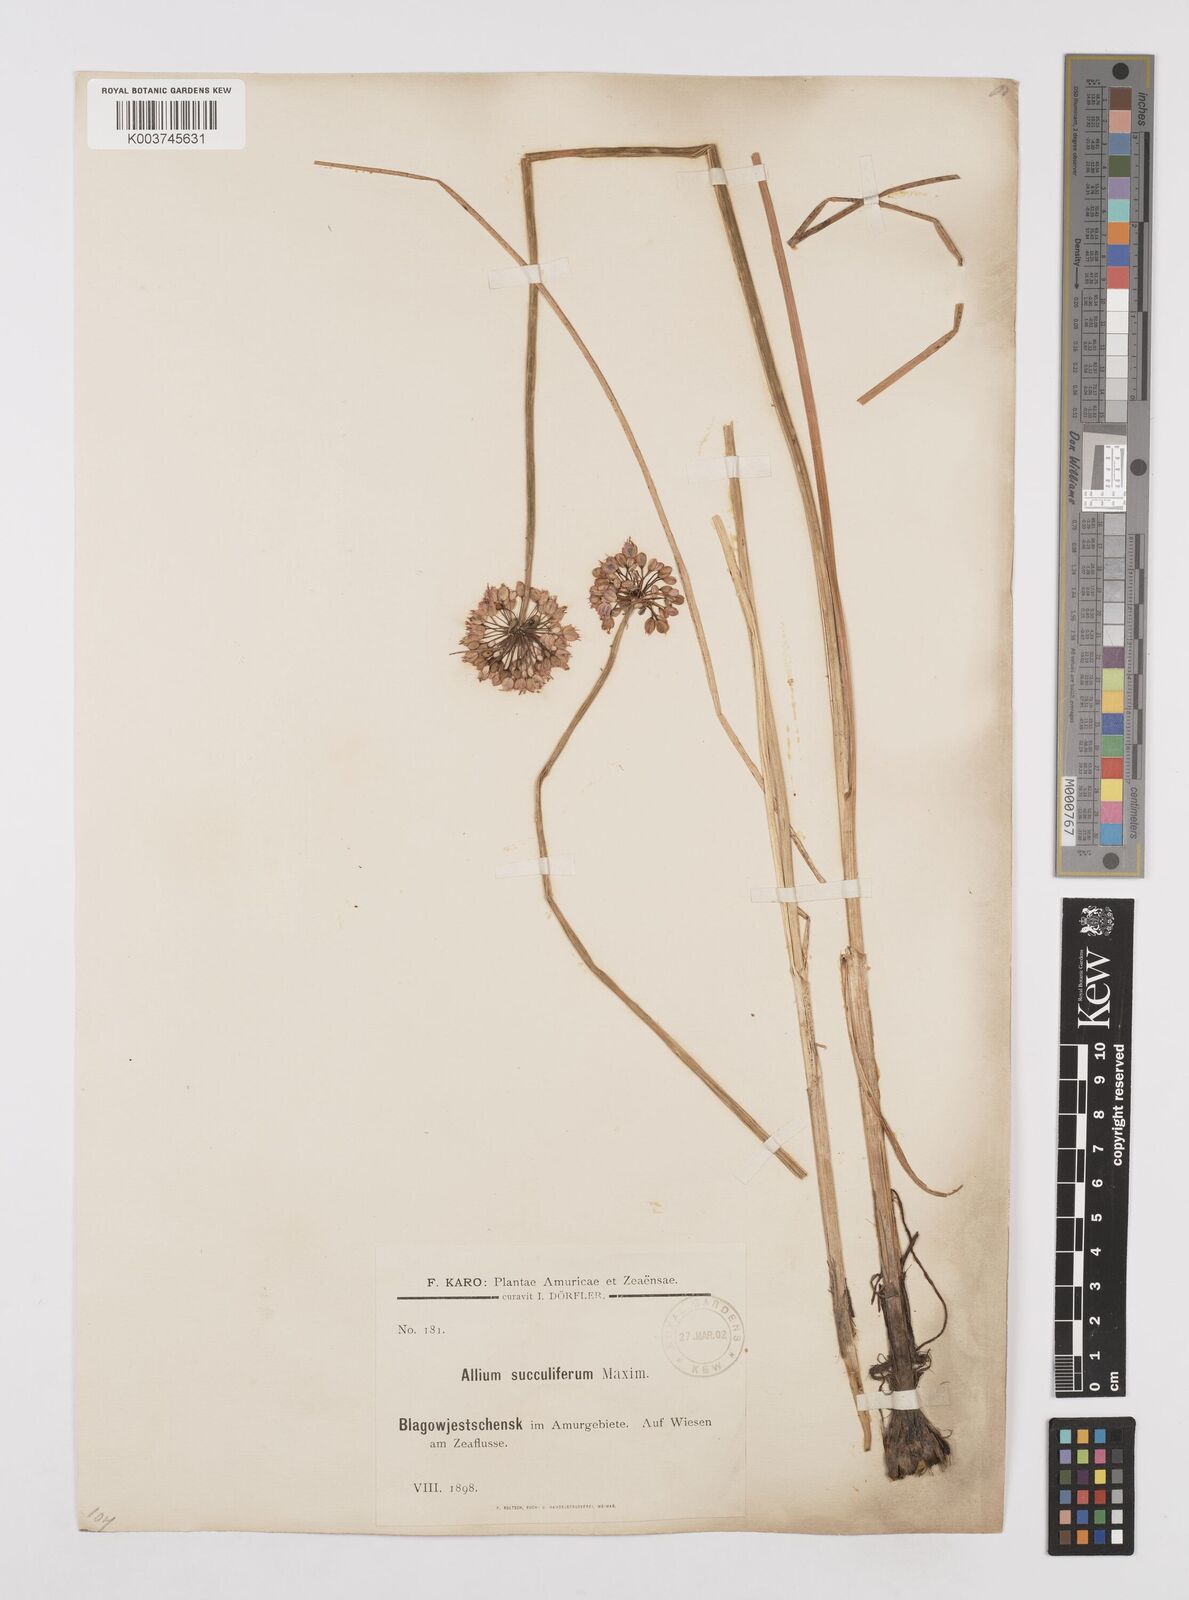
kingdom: Plantae
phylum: Tracheophyta
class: Liliopsida
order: Asparagales
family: Amaryllidaceae
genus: Allium
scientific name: Allium sacculiferum
